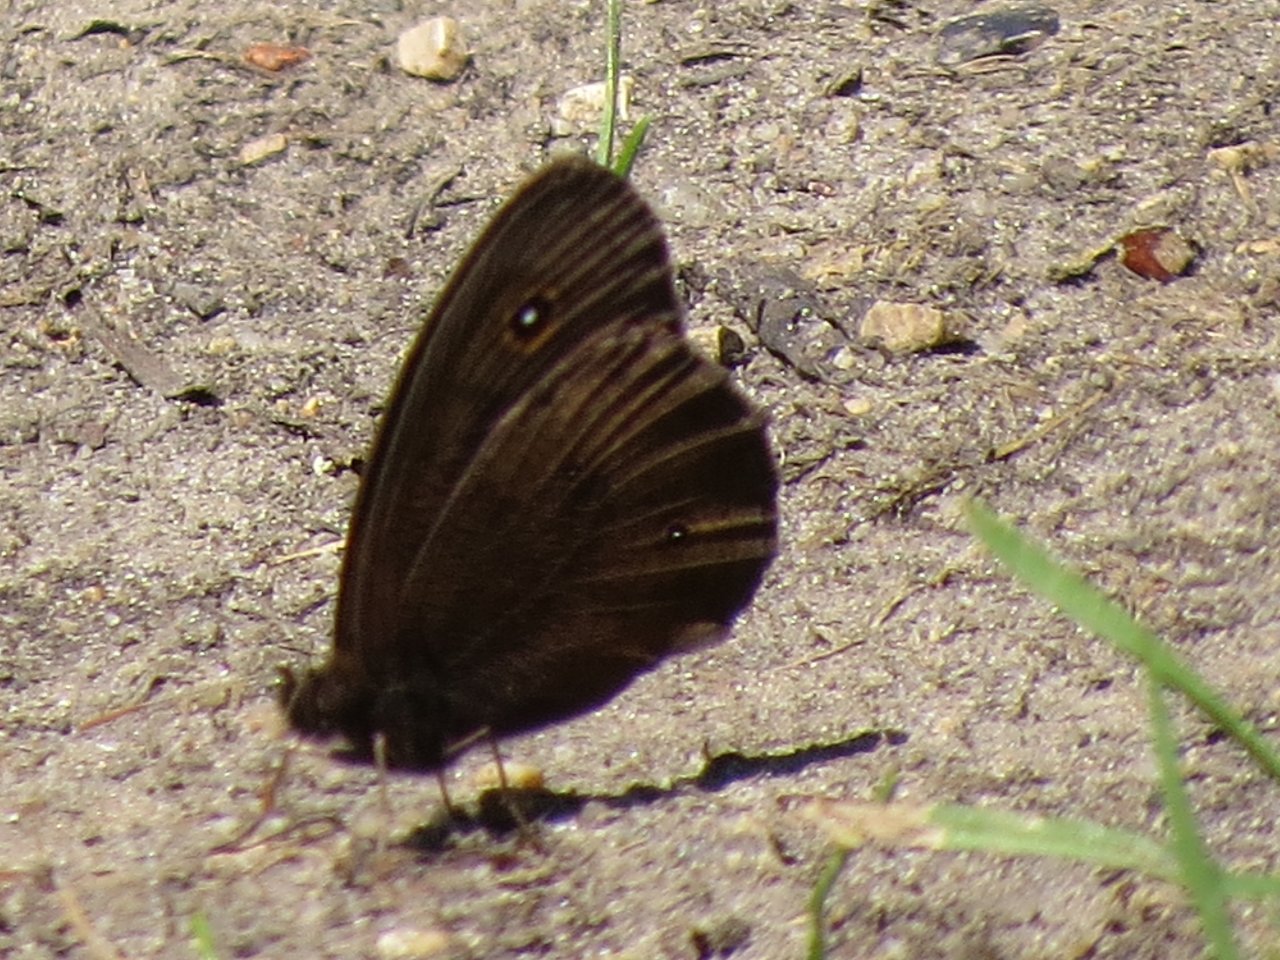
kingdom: Animalia
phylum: Arthropoda
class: Insecta
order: Lepidoptera
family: Nymphalidae
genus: Cercyonis
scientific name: Cercyonis pegala
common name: Common Wood-Nymph
